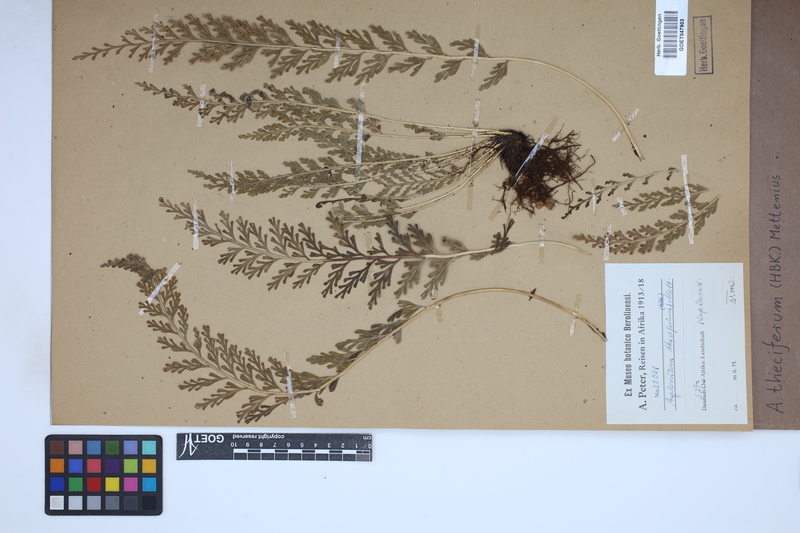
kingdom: Plantae
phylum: Tracheophyta
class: Polypodiopsida
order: Polypodiales
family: Aspleniaceae
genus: Asplenium
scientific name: Asplenium theciferum
